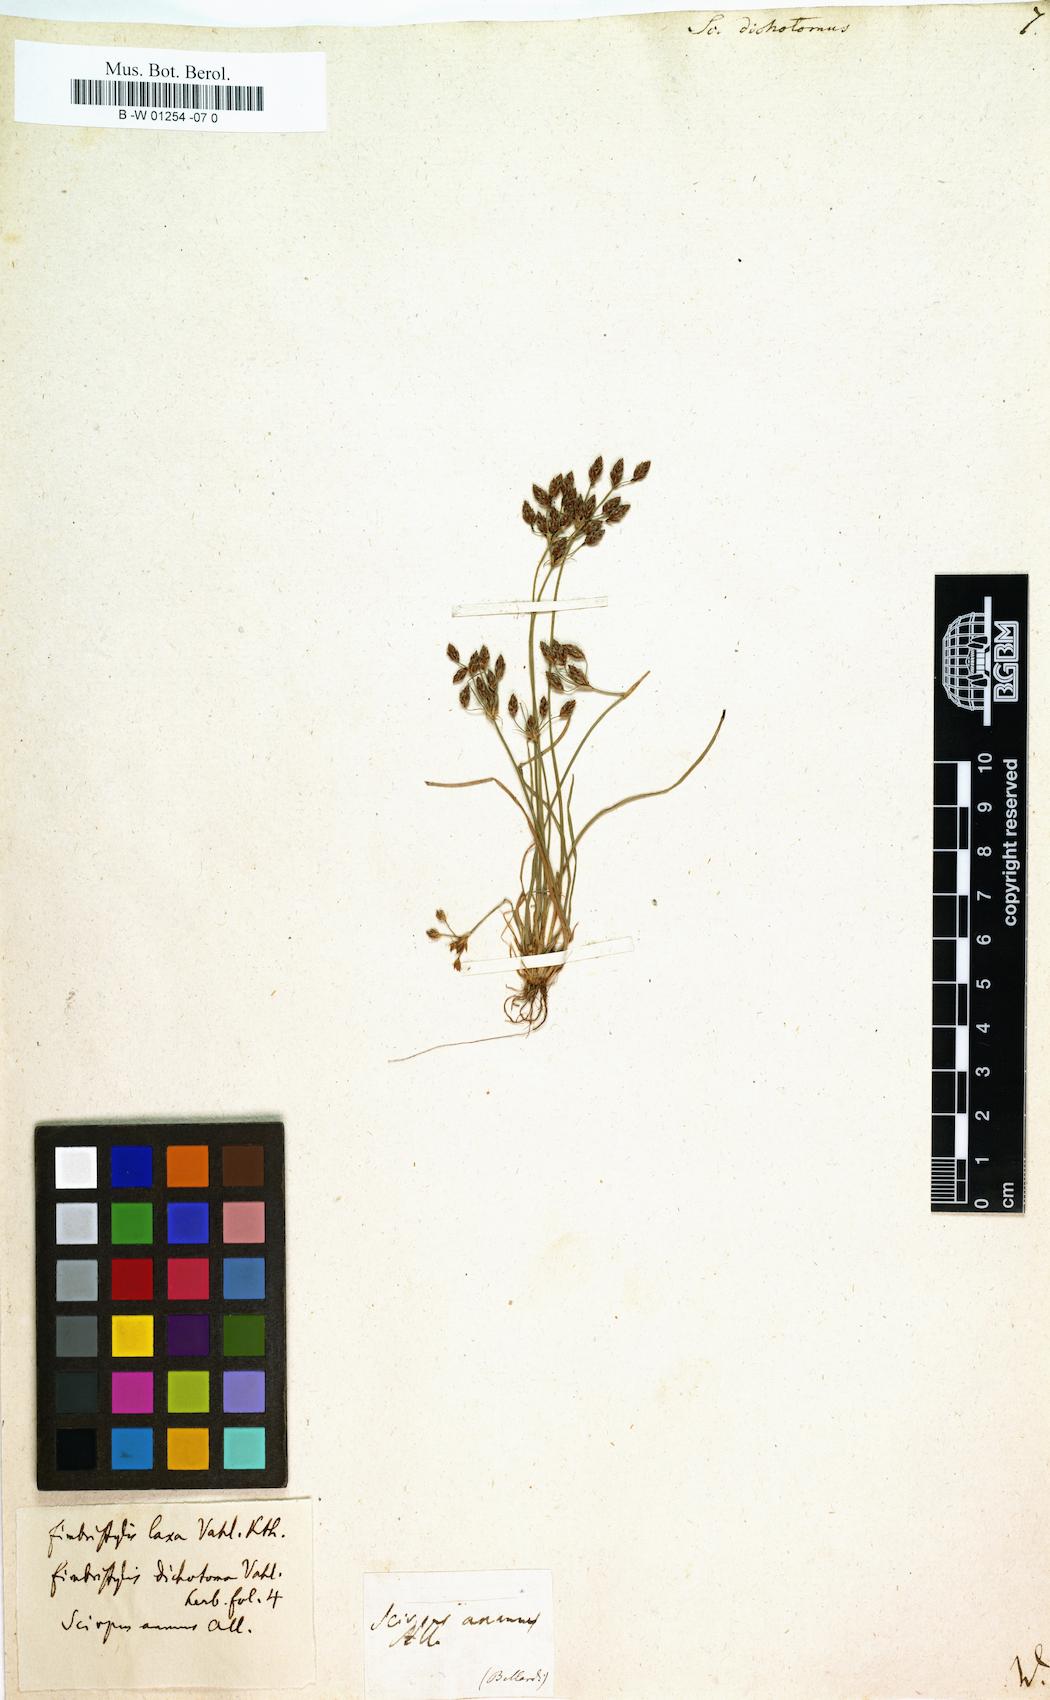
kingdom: Plantae
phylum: Tracheophyta
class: Liliopsida
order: Poales
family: Cyperaceae
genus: Scirpus
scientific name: Scirpus dichotomus
